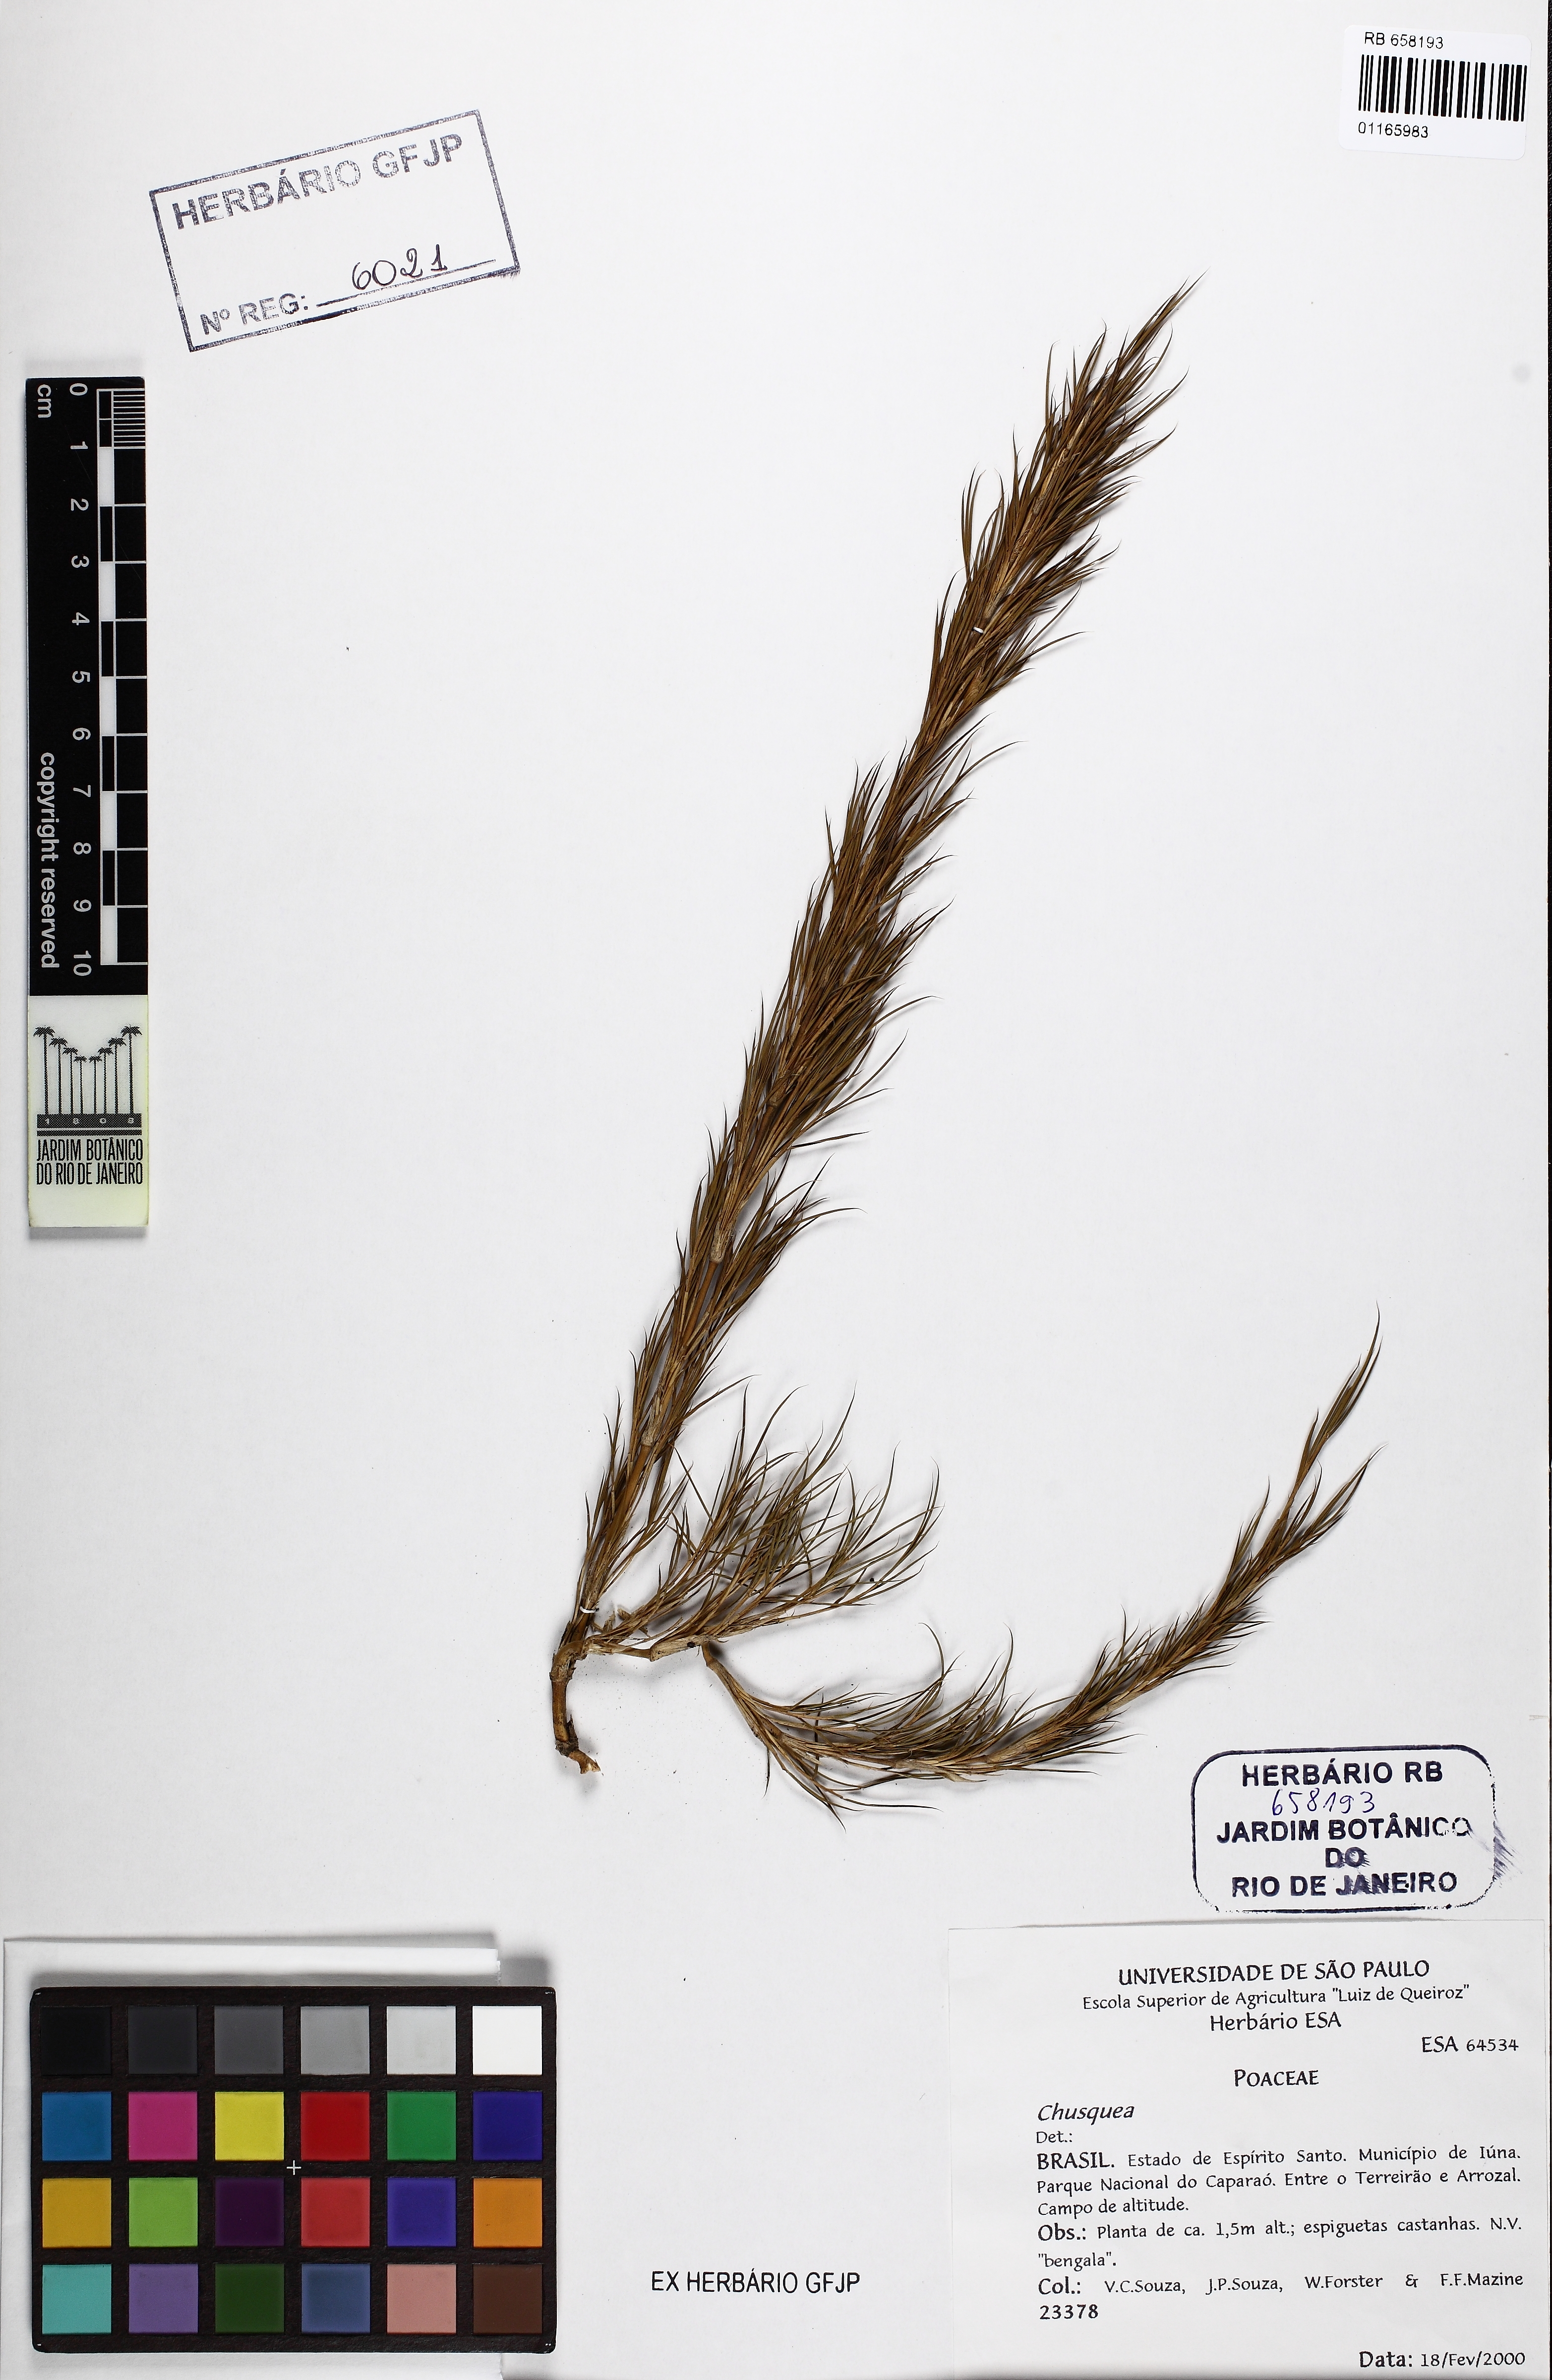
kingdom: Plantae
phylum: Tracheophyta
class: Liliopsida
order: Poales
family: Poaceae
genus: Chusquea
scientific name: Chusquea pinifolia
